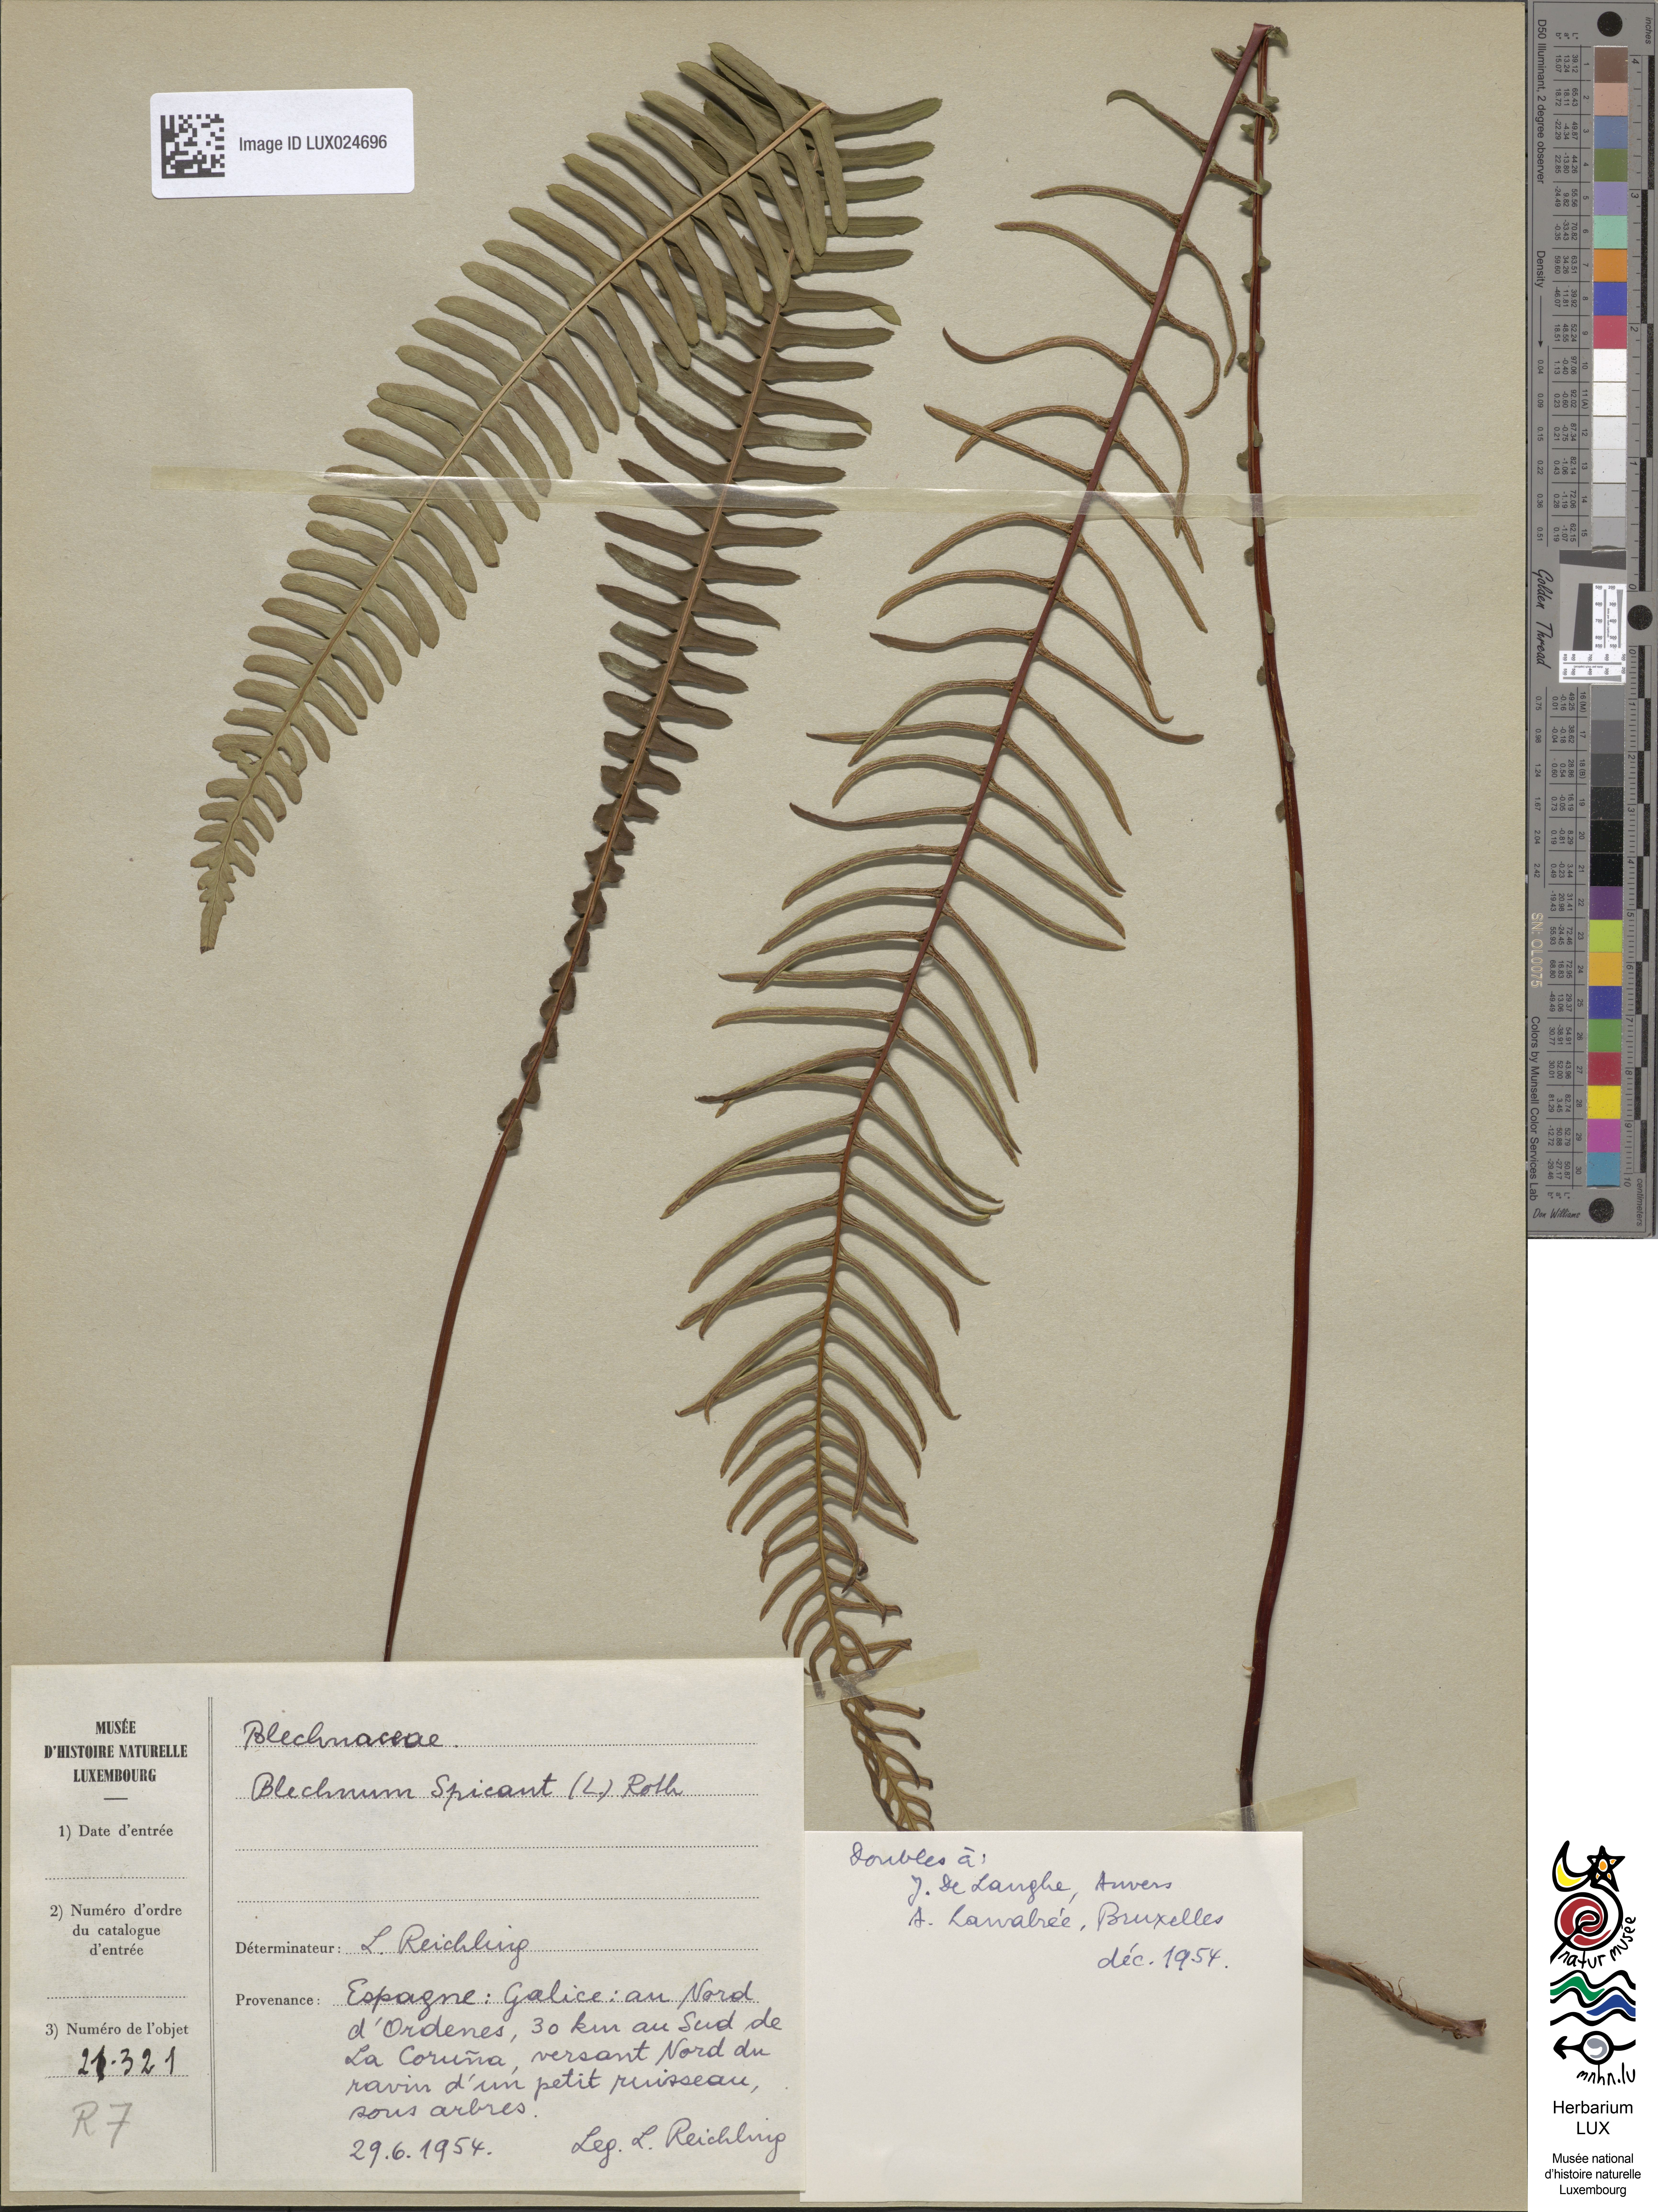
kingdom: Plantae
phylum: Tracheophyta
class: Polypodiopsida
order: Polypodiales
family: Blechnaceae
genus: Struthiopteris
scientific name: Struthiopteris spicant
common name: Deer fern
